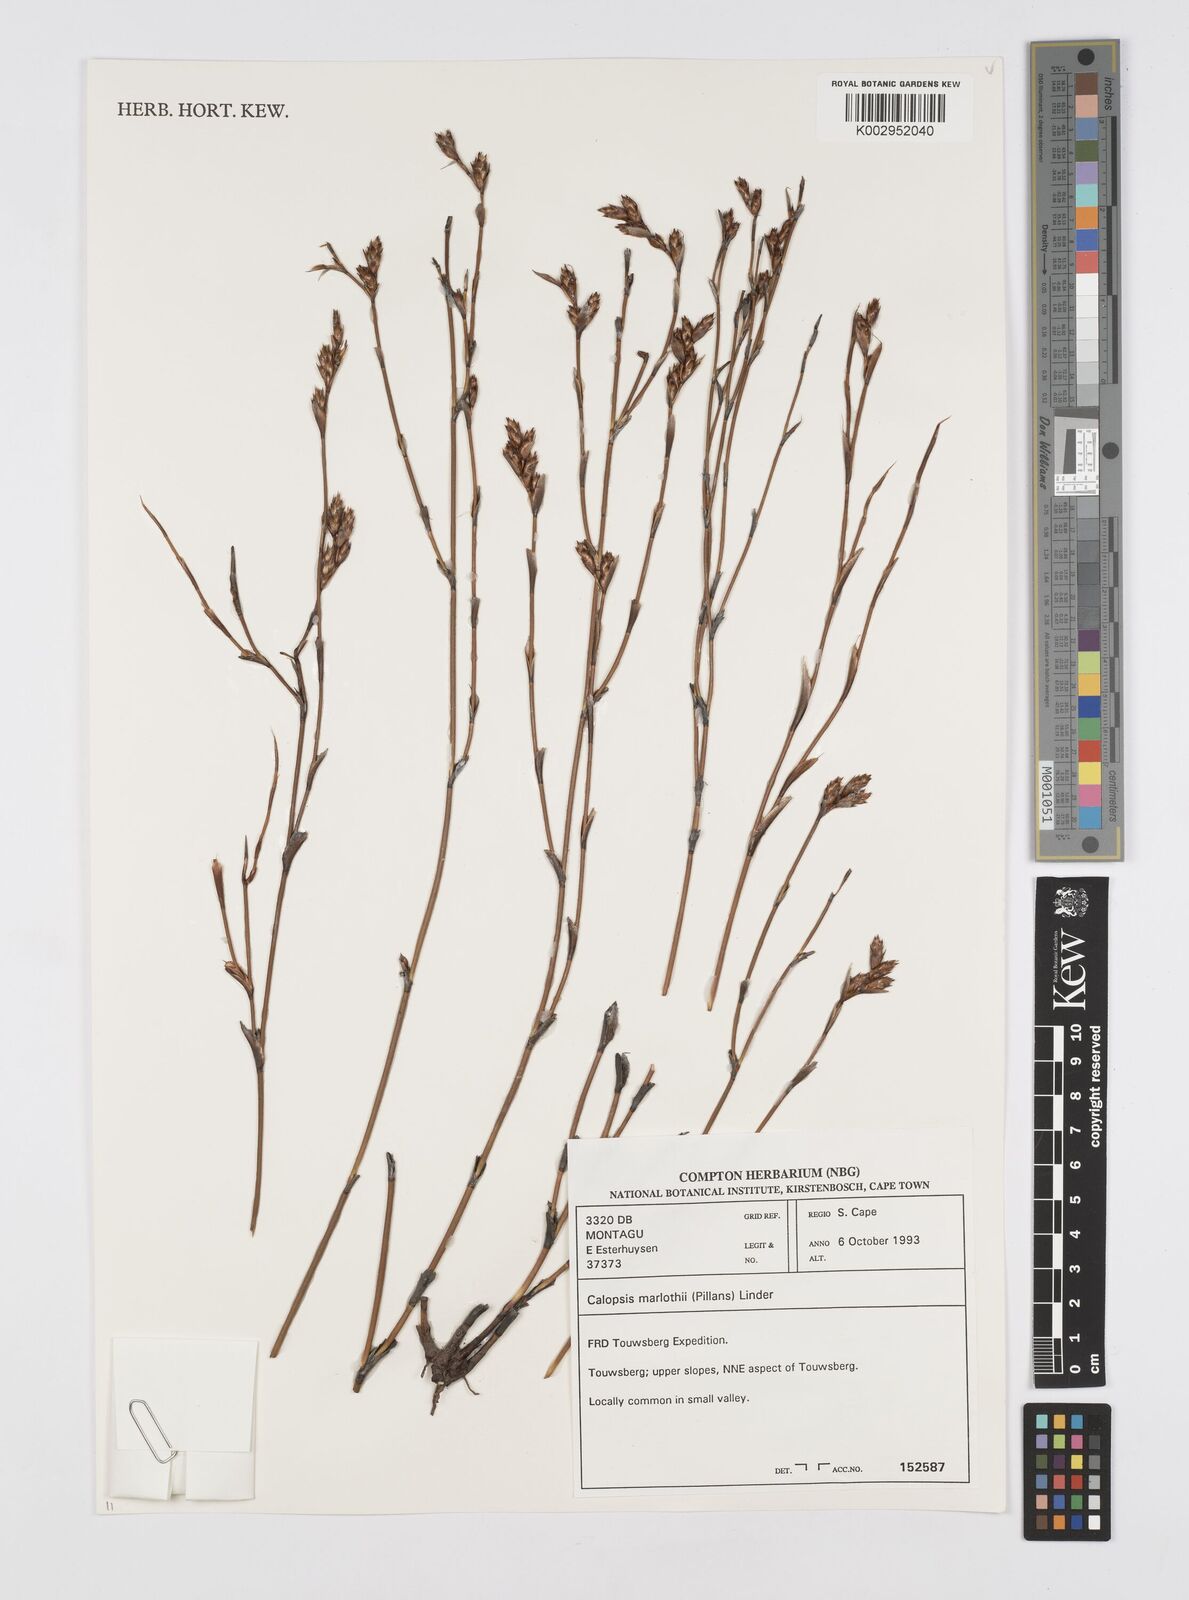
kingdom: Plantae
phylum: Tracheophyta
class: Liliopsida
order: Poales
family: Restionaceae
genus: Restio
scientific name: Restio marlothii
